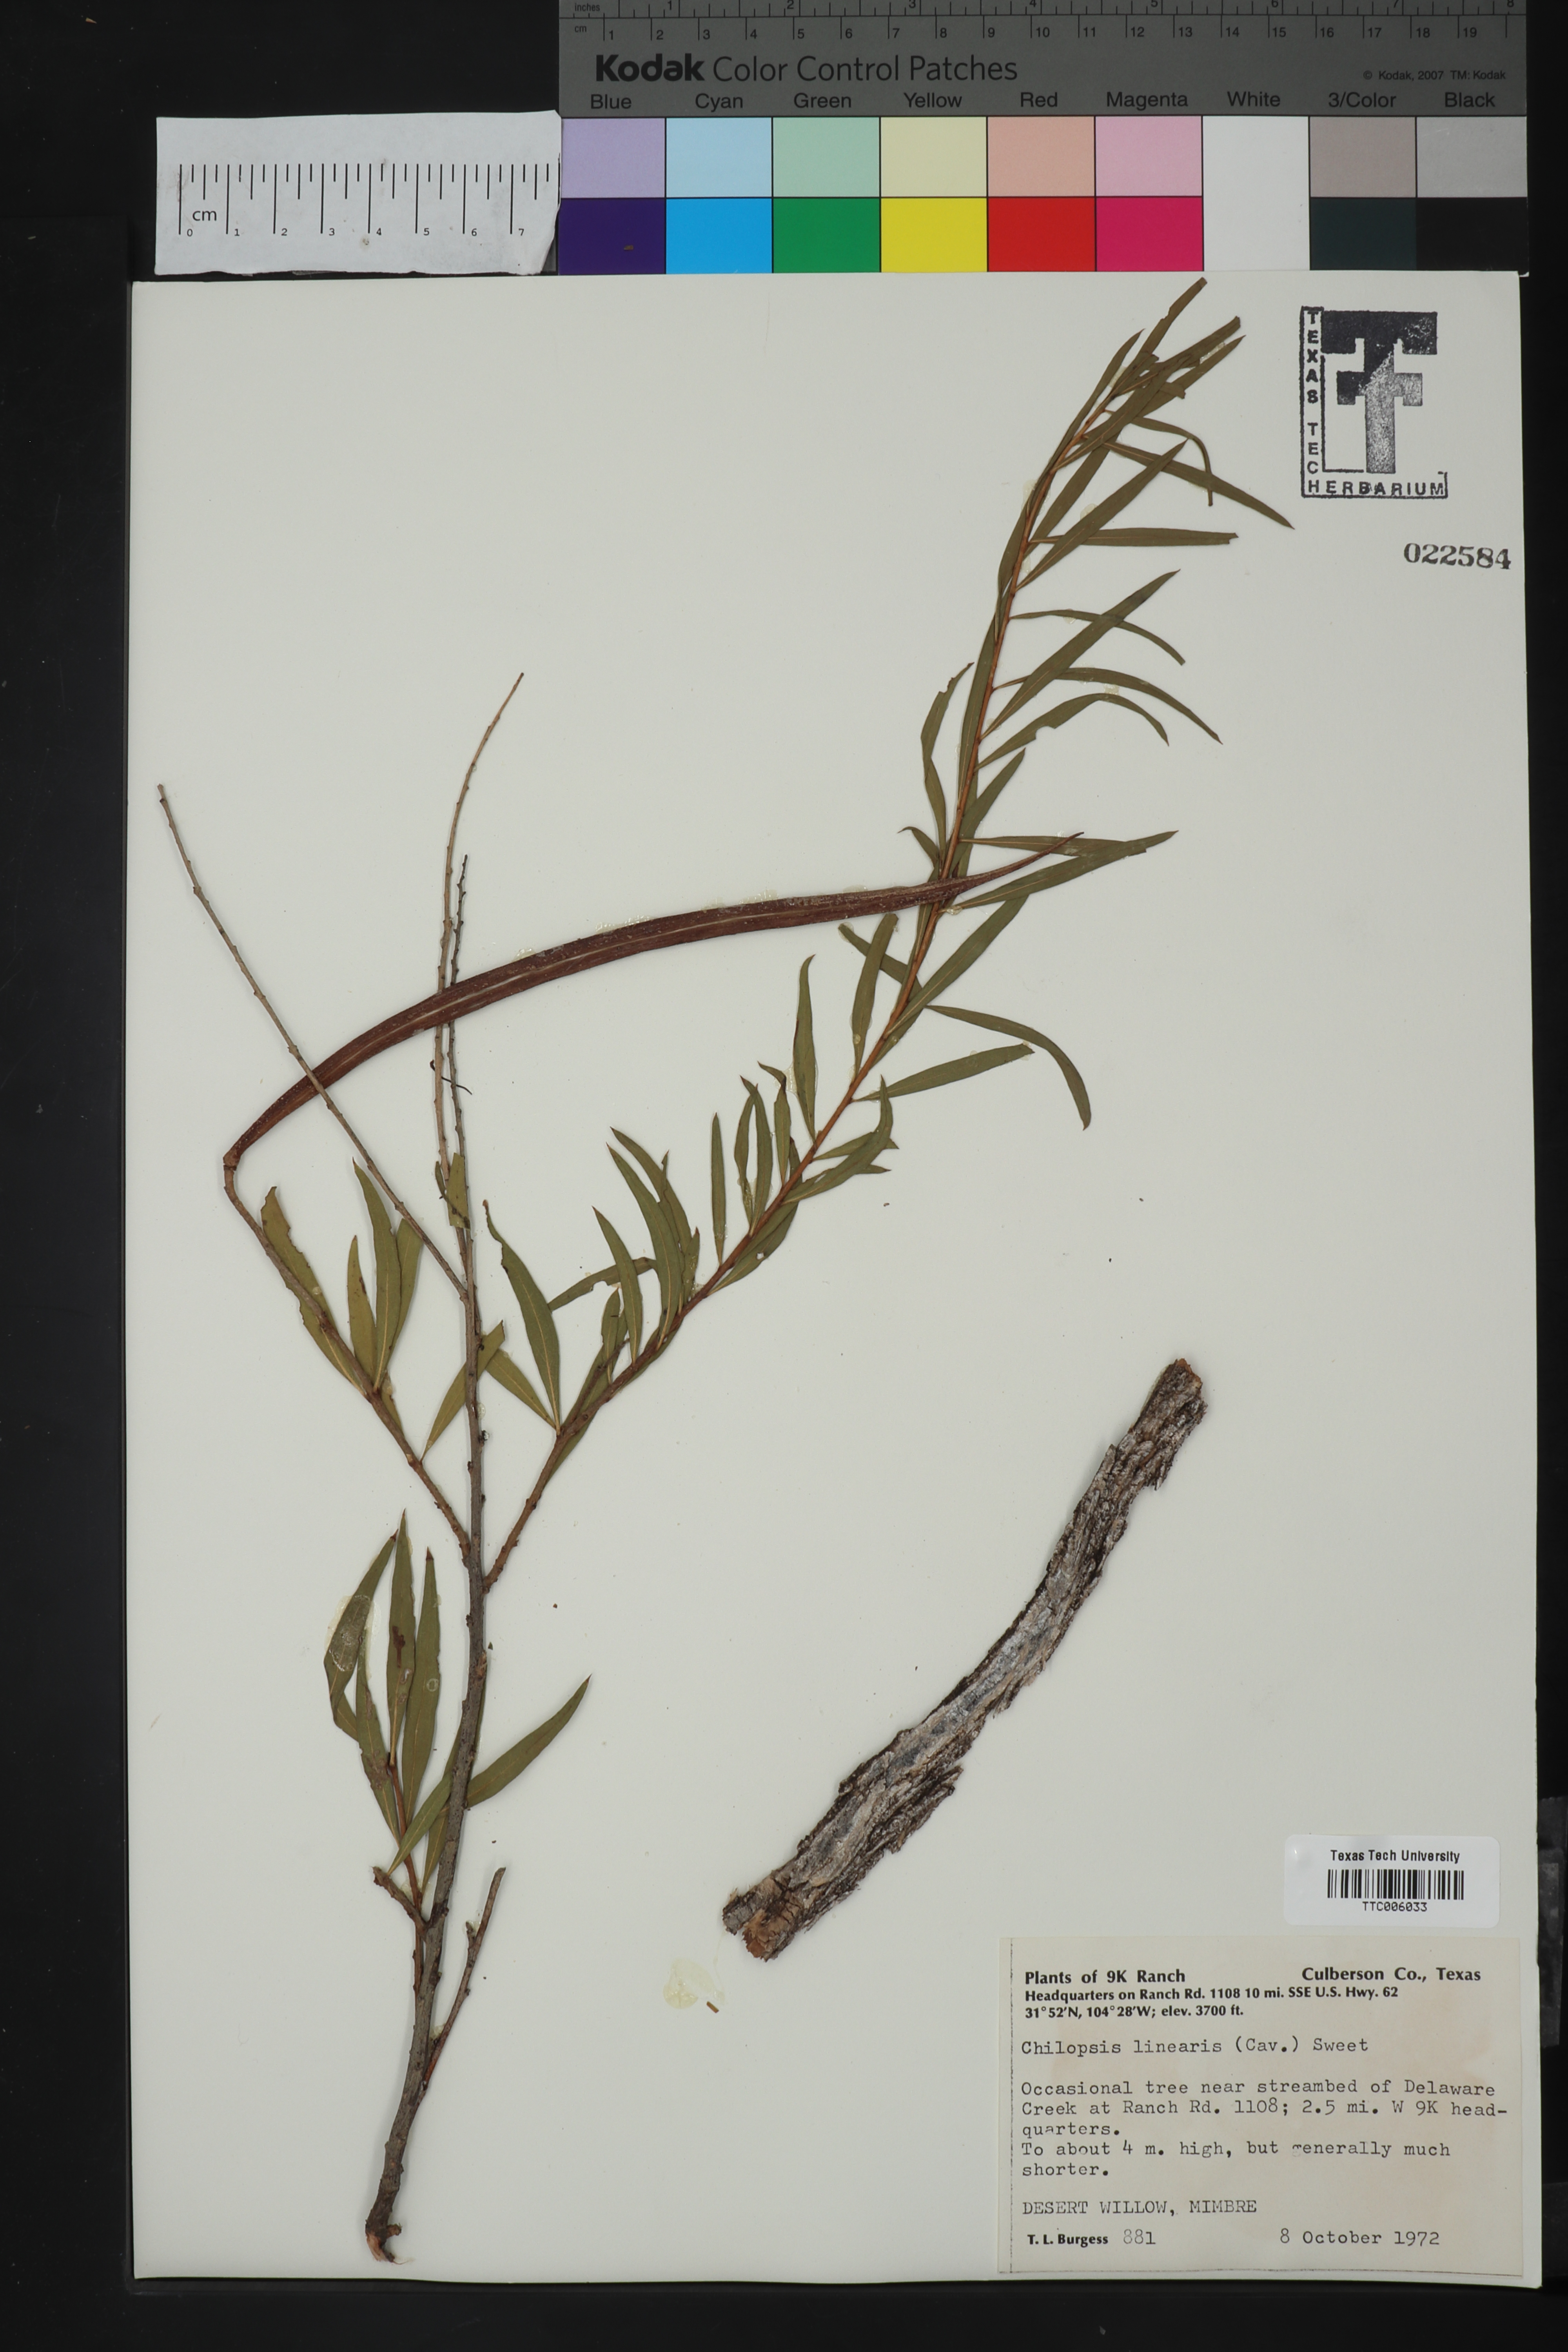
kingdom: Plantae
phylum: Tracheophyta
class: Magnoliopsida
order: Lamiales
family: Bignoniaceae
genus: Chilopsis
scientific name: Chilopsis linearis
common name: Desert-willow
